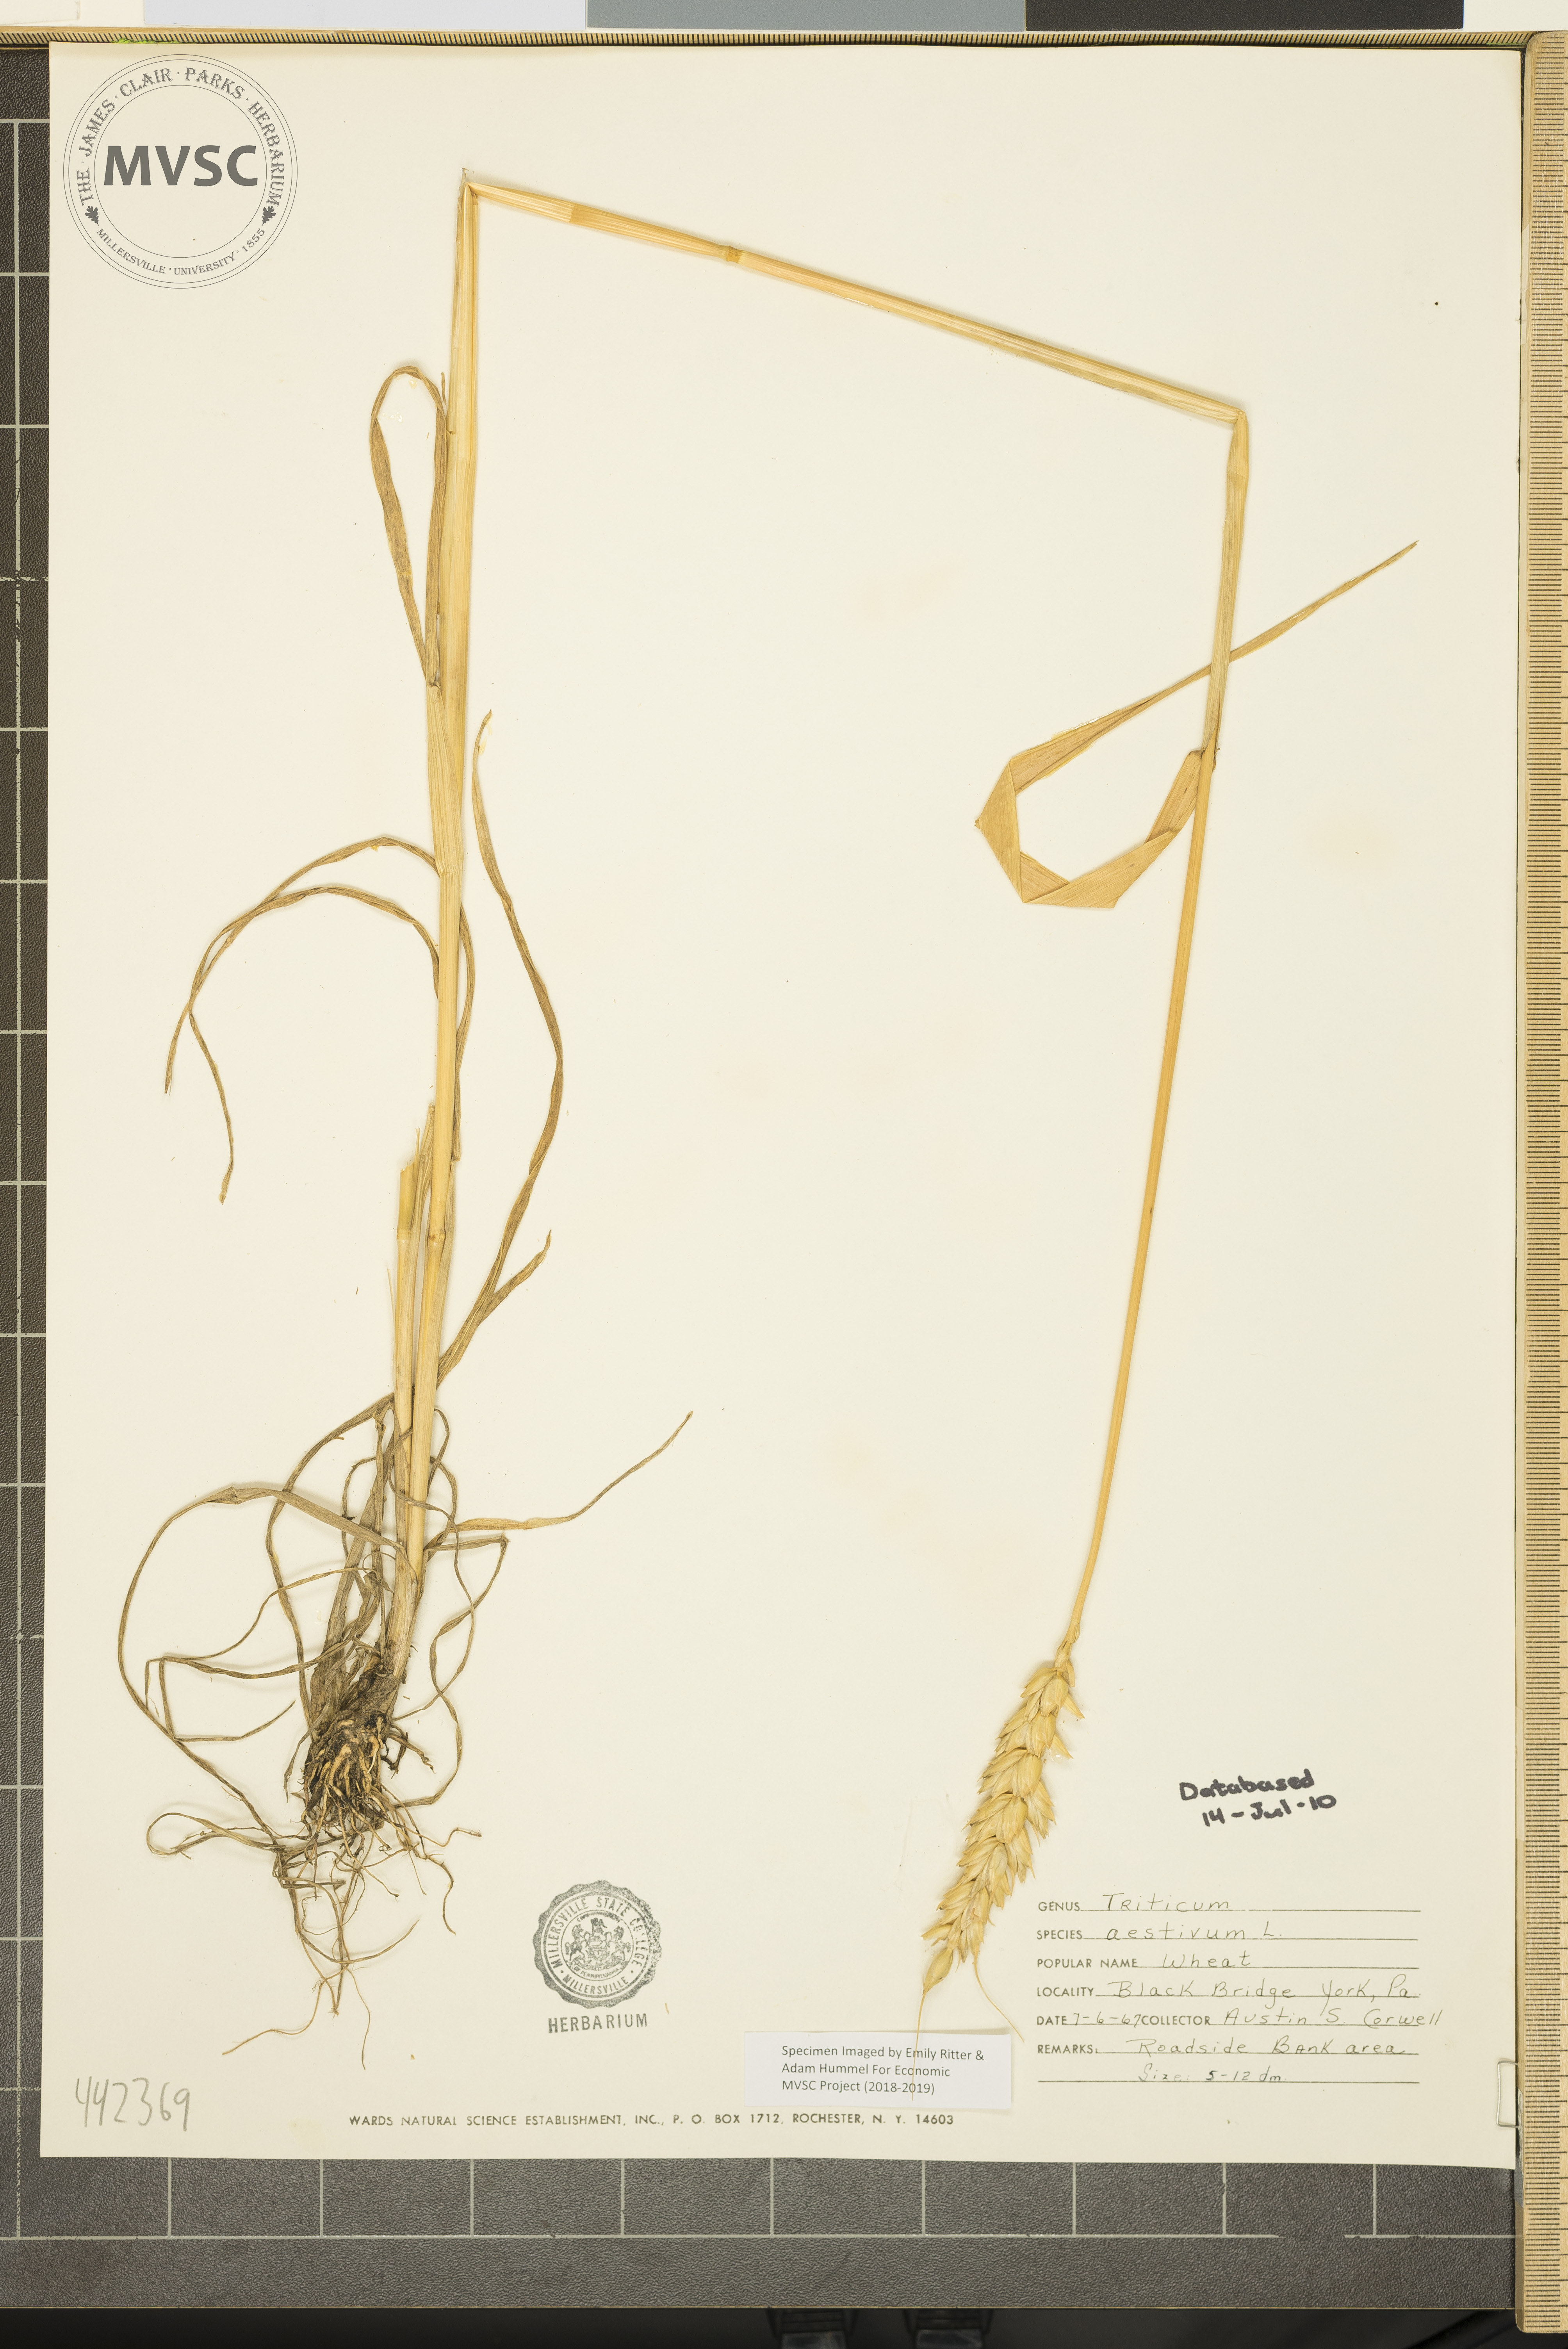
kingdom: Plantae
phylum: Tracheophyta
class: Liliopsida
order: Poales
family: Poaceae
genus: Triticum
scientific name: Triticum aestivum
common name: Wheat
